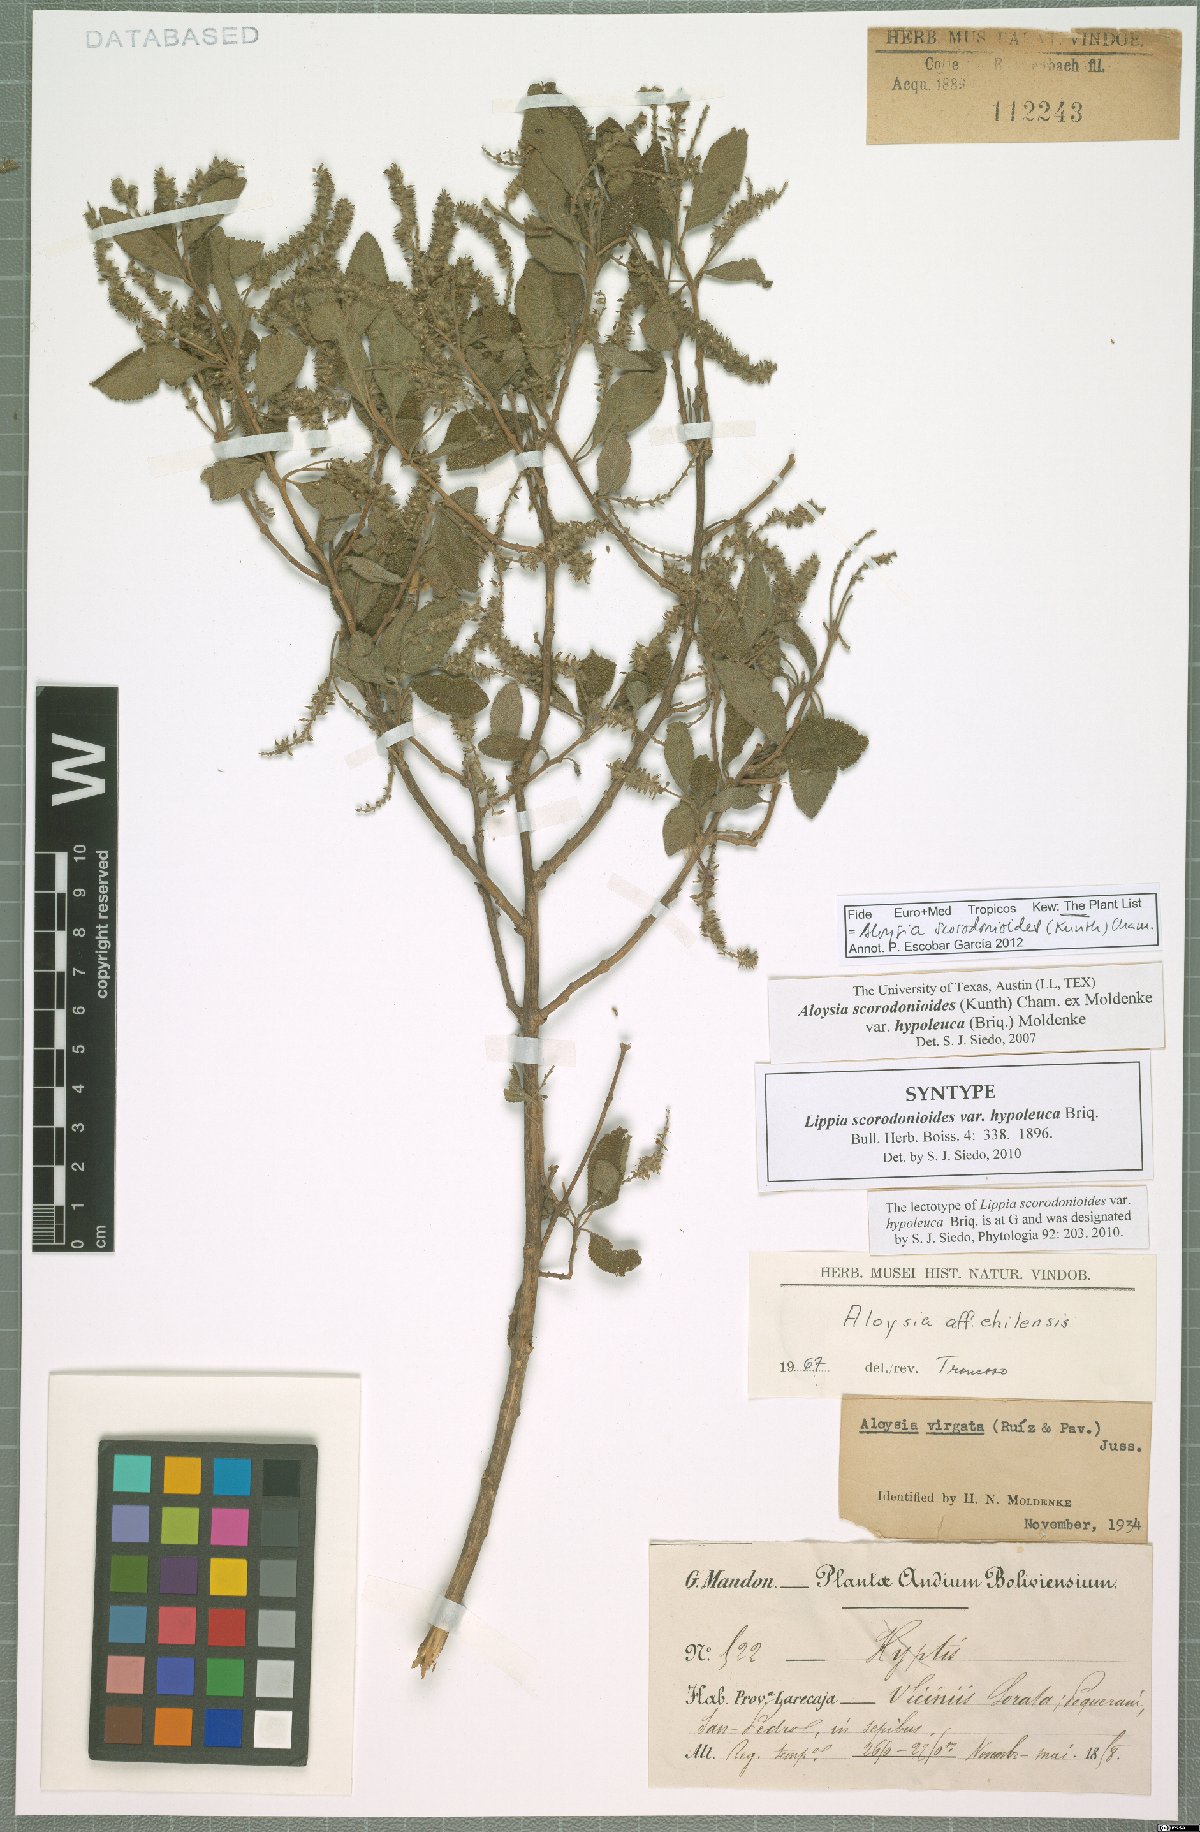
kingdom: Plantae
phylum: Tracheophyta
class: Magnoliopsida
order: Lamiales
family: Verbenaceae
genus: Aloysia
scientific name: Aloysia scorodonioides
